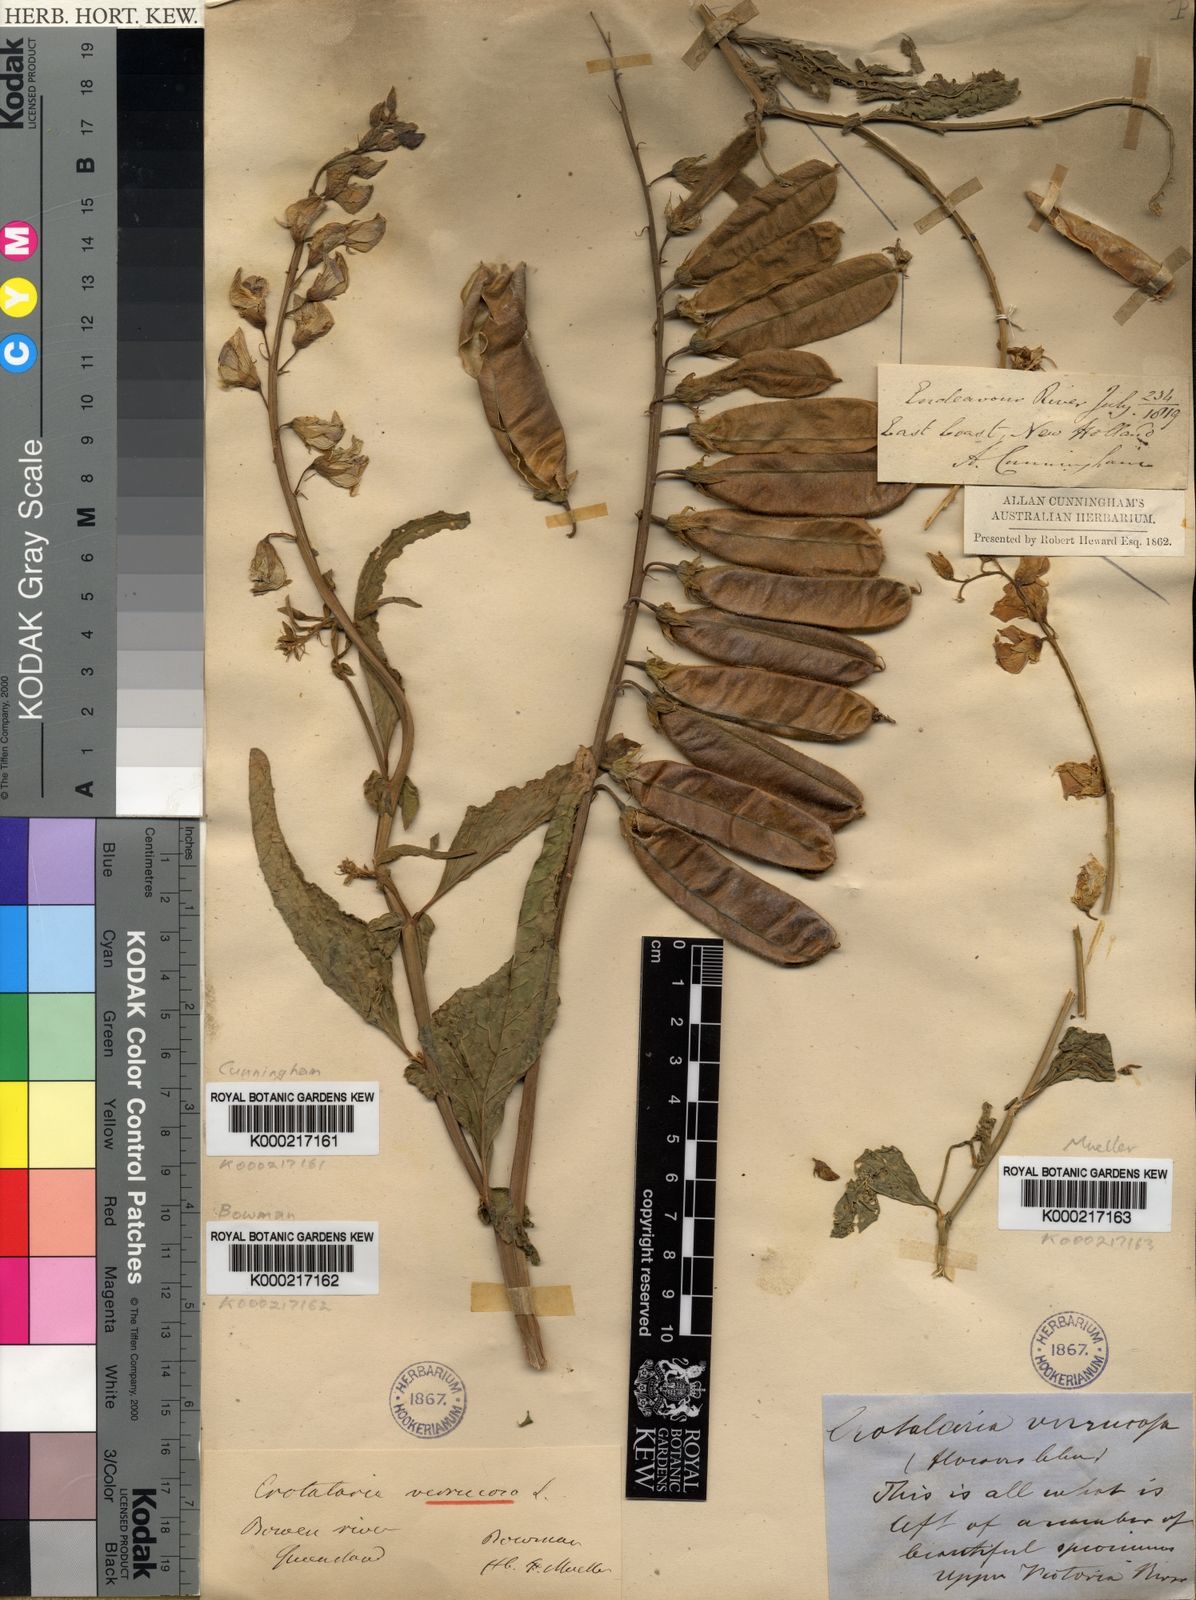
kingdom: Plantae
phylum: Tracheophyta
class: Magnoliopsida
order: Fabales
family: Fabaceae
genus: Crotalaria
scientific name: Crotalaria verrucosa
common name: Blue rattlesnake
